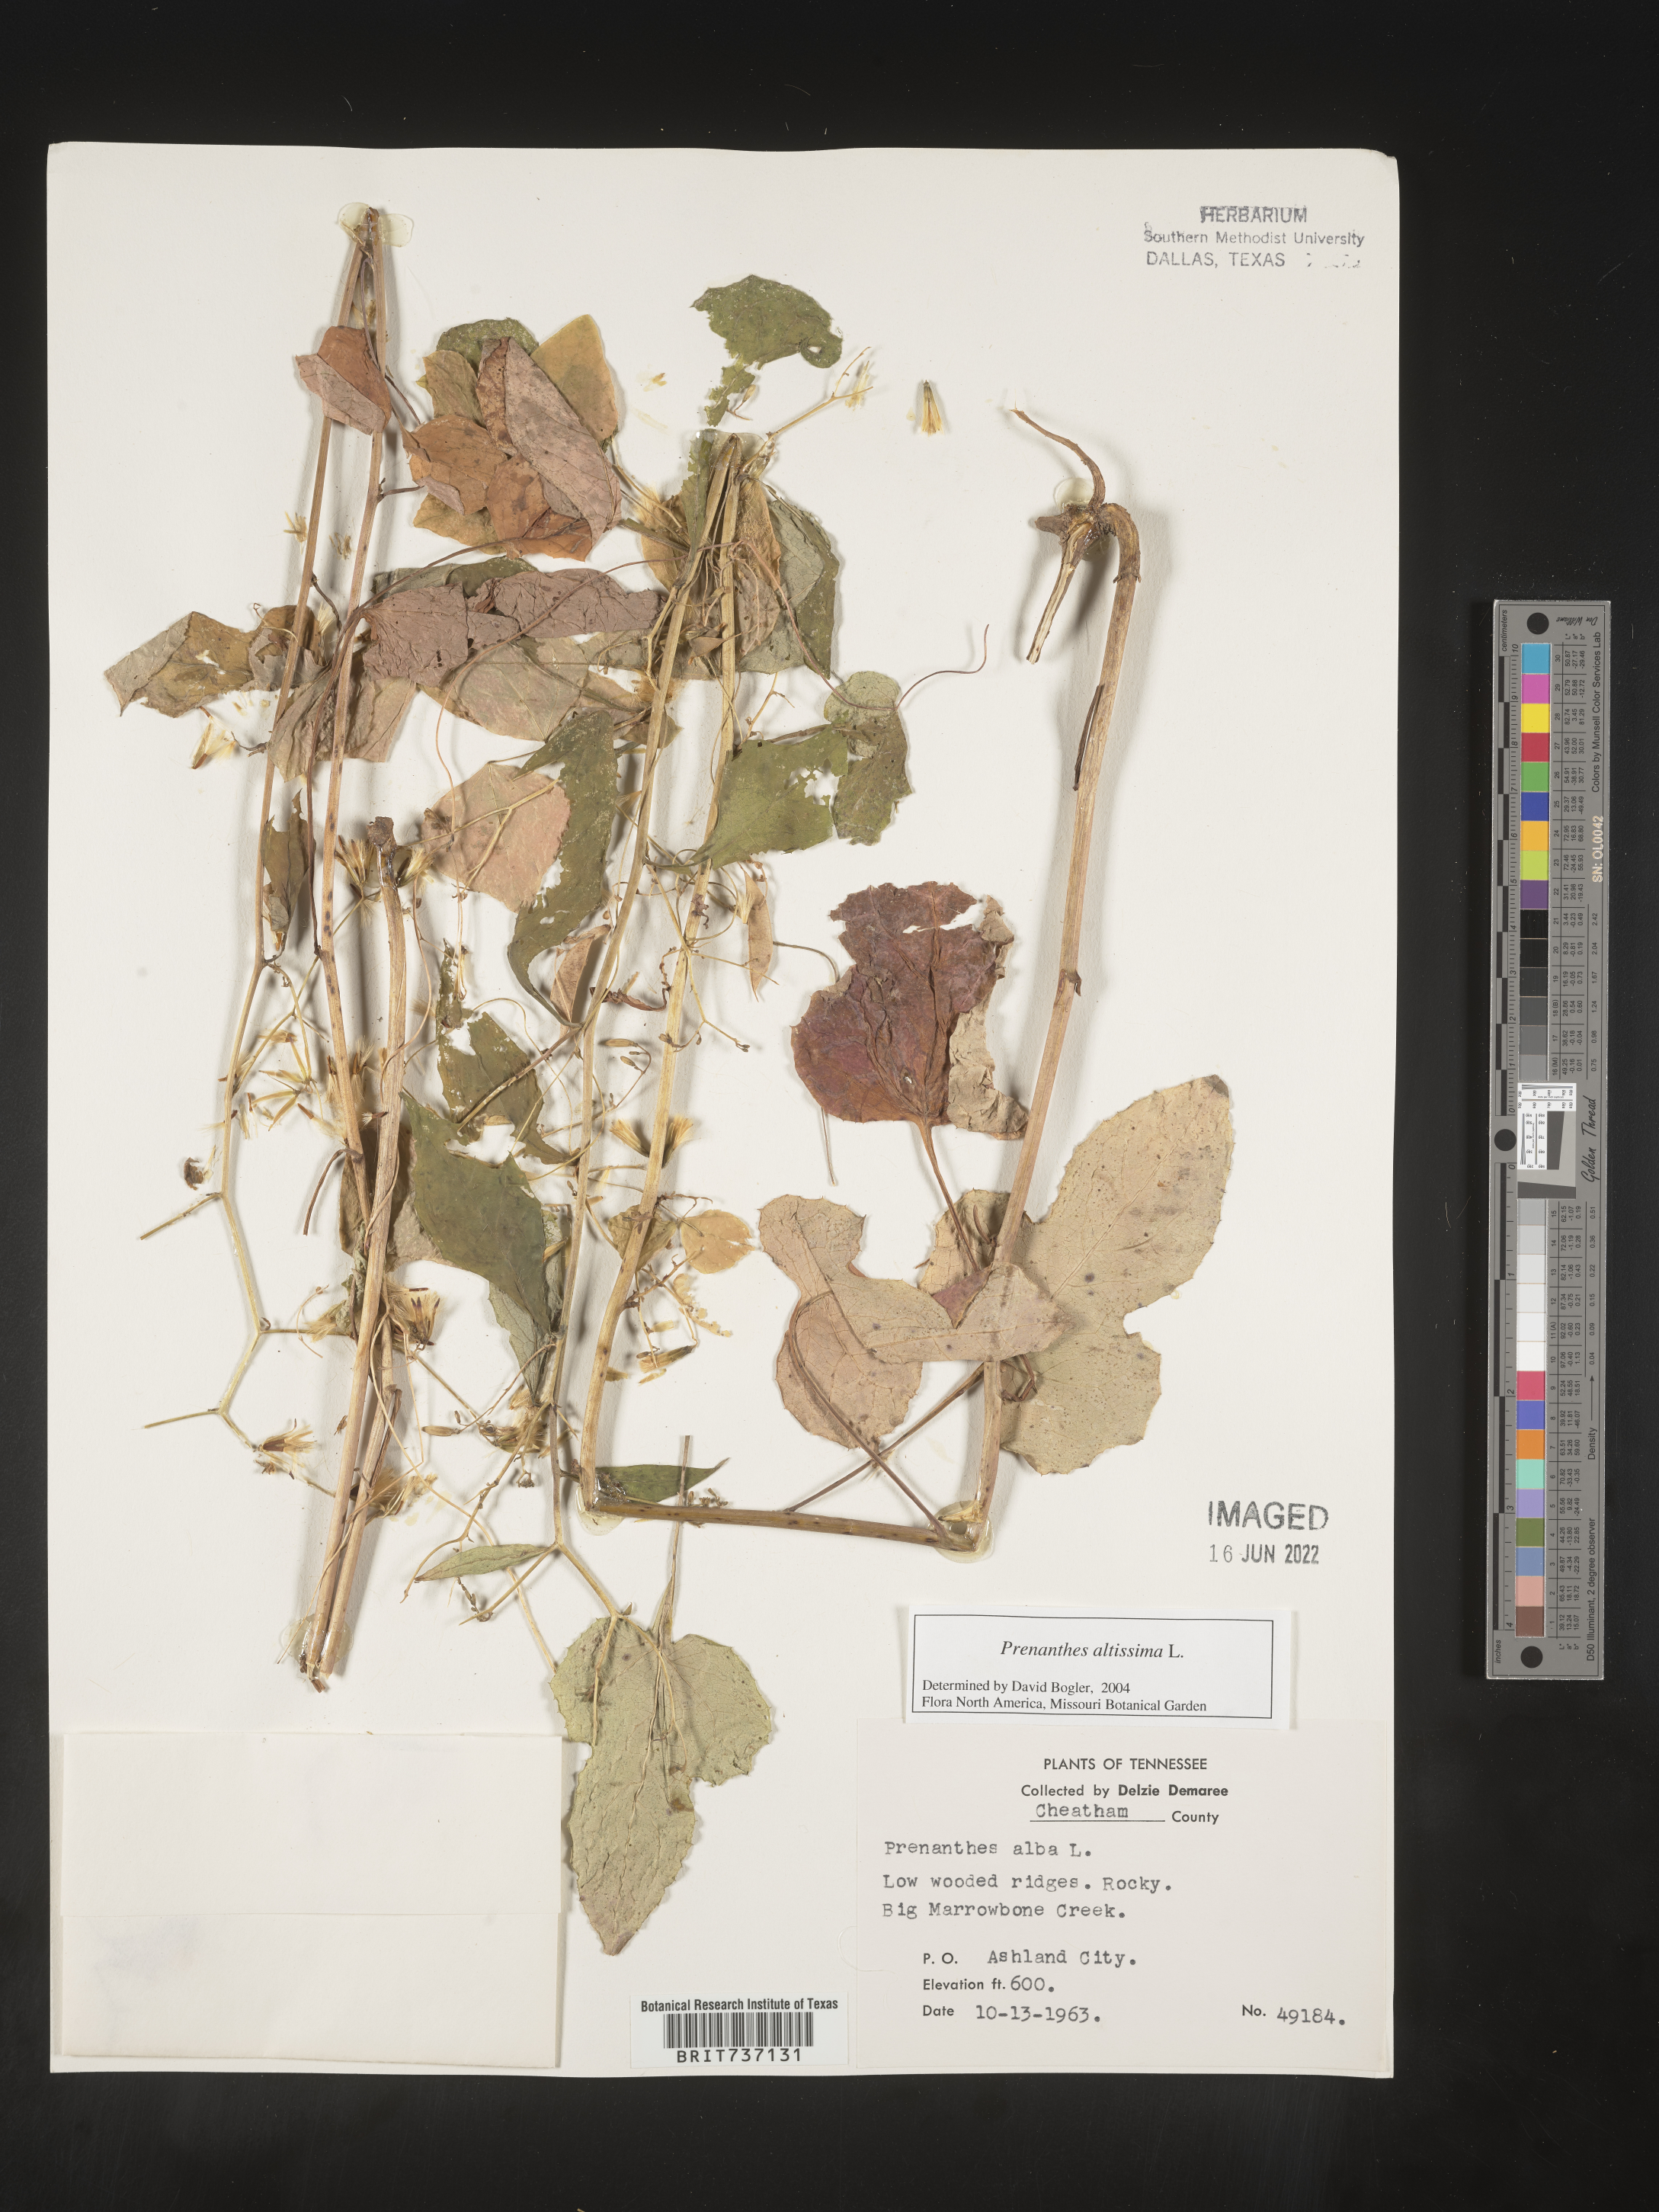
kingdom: Plantae
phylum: Tracheophyta
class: Magnoliopsida
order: Asterales
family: Asteraceae
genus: Lactuca
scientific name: Lactuca quercina
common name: Wild lettuce
